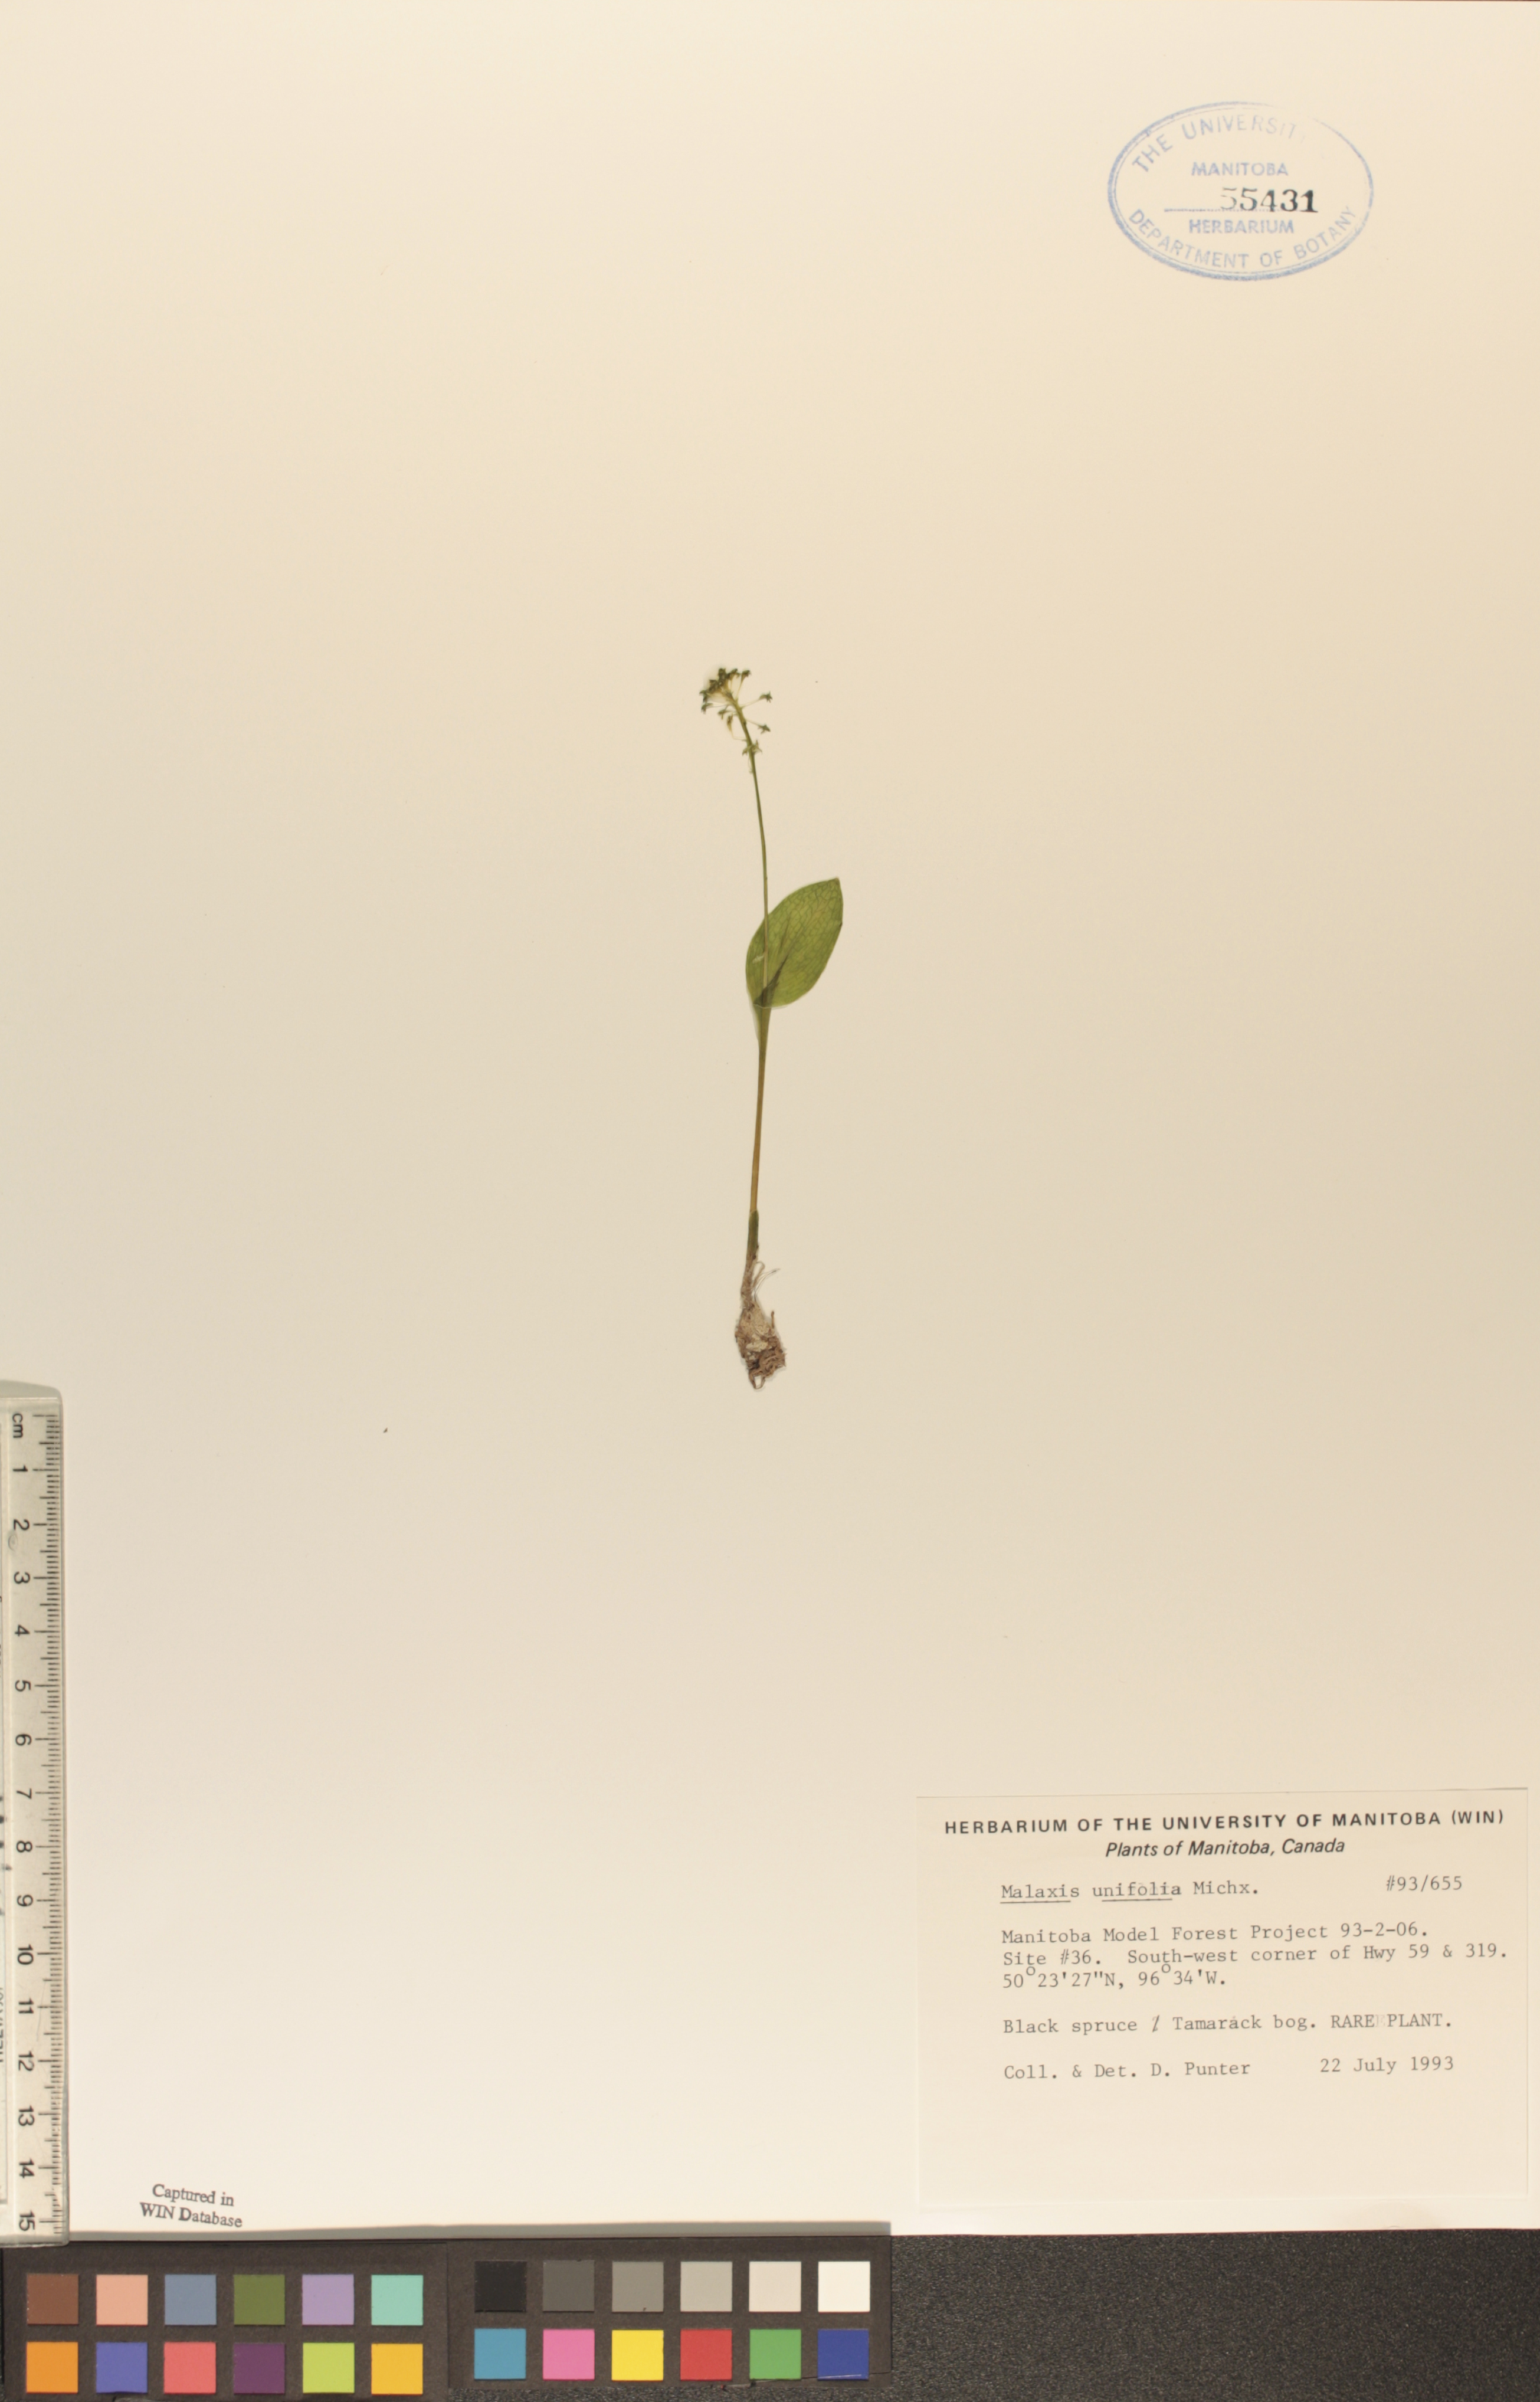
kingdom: Plantae
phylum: Tracheophyta
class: Liliopsida
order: Asparagales
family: Orchidaceae
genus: Malaxis
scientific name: Malaxis unifolia
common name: Green adder's-mouth
